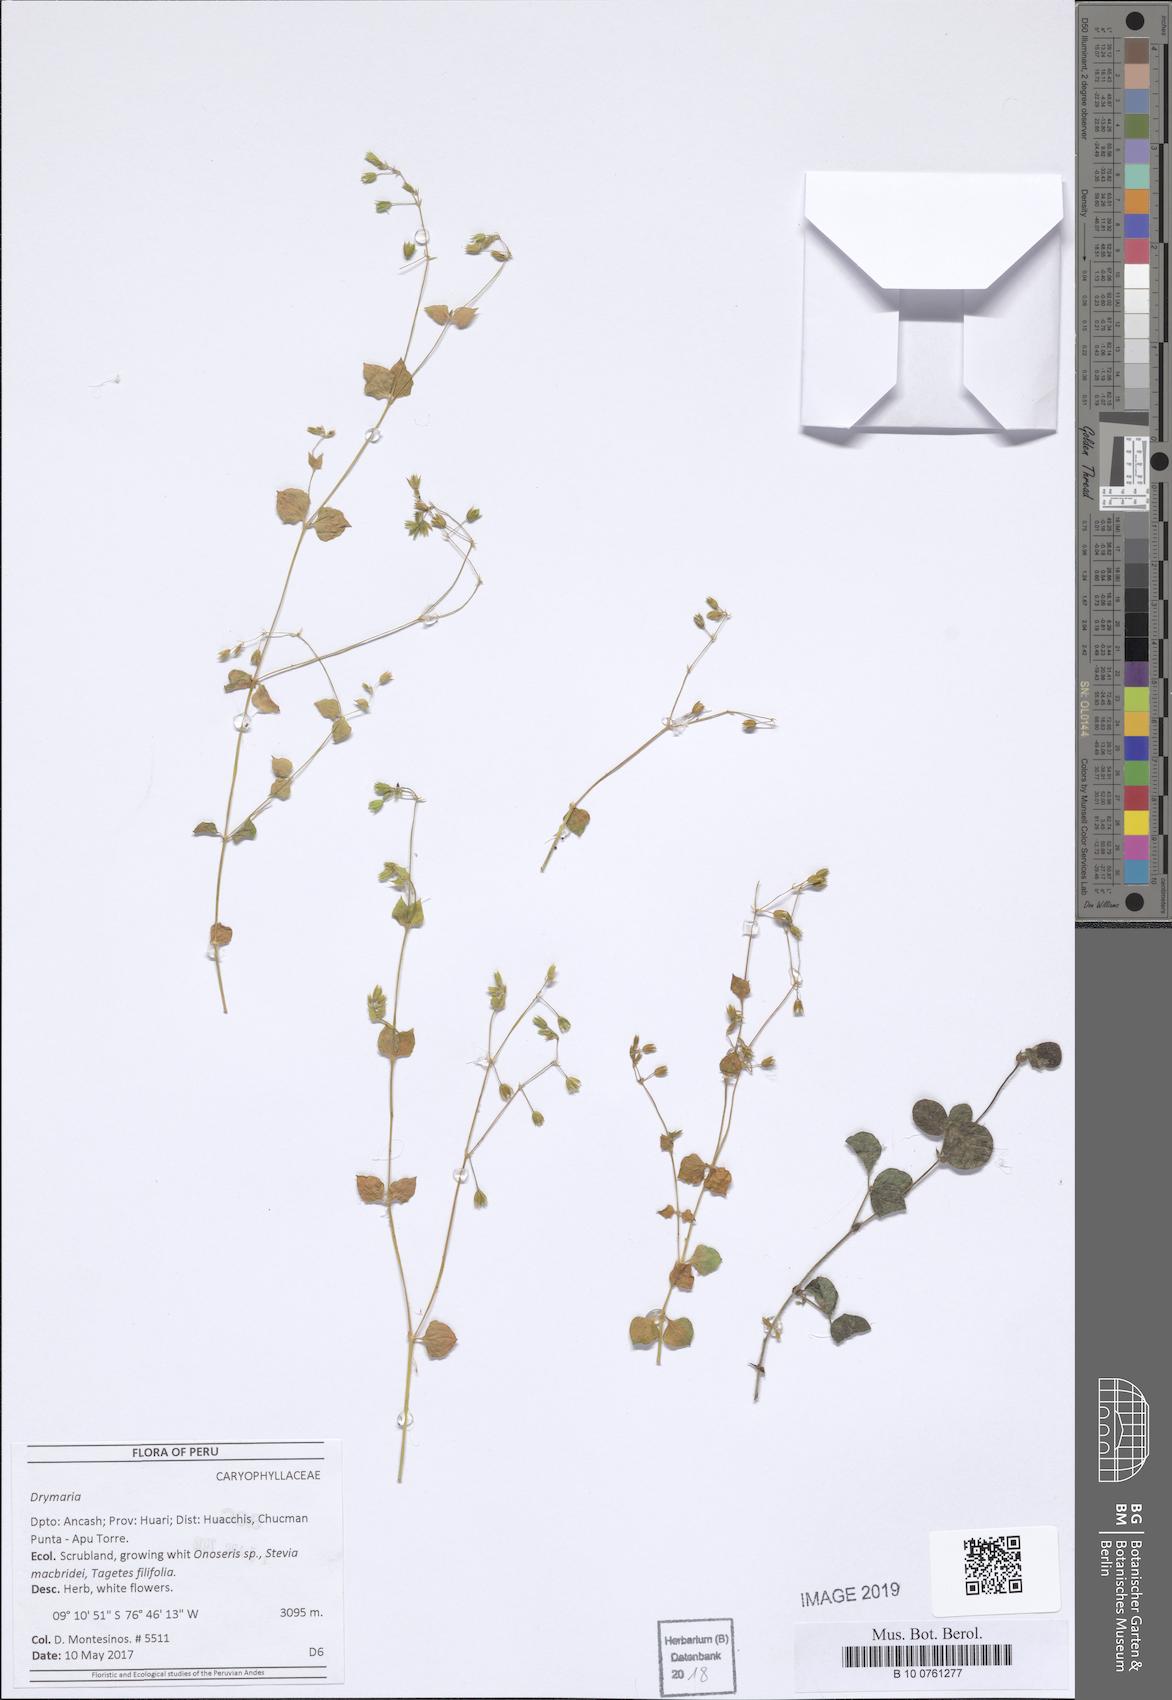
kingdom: Plantae
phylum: Tracheophyta
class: Magnoliopsida
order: Caryophyllales
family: Caryophyllaceae
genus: Drymaria
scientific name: Drymaria
